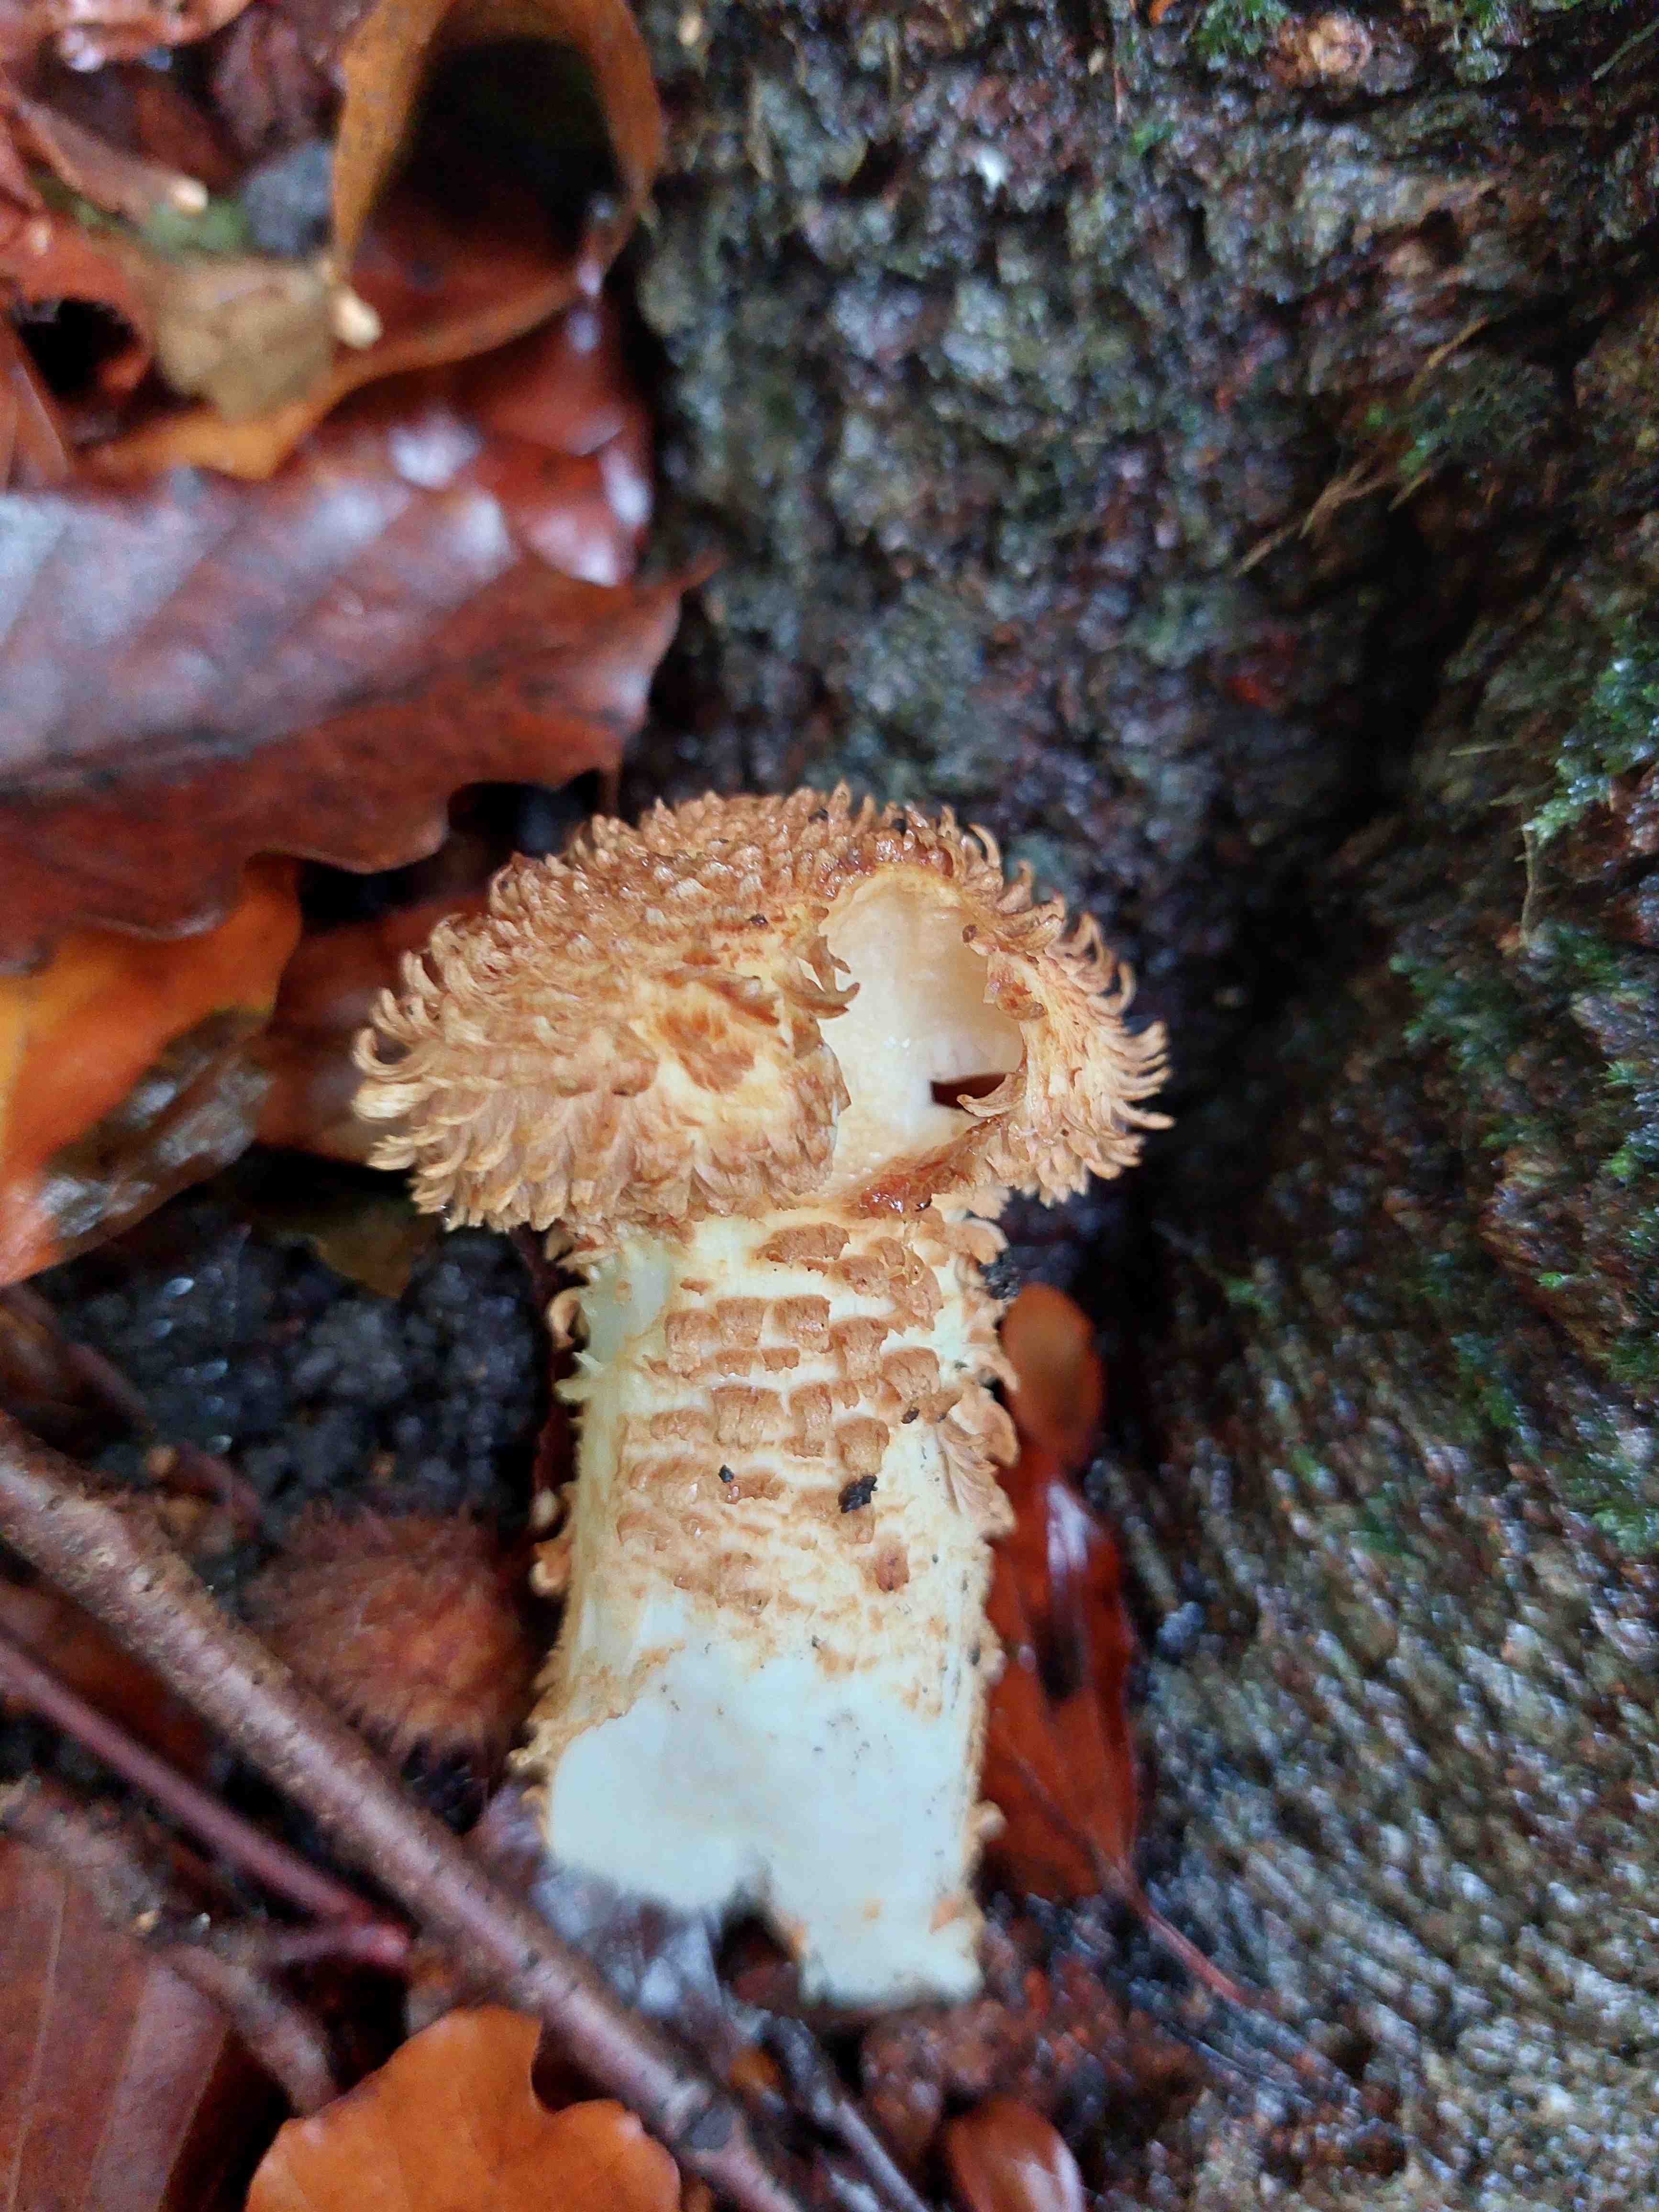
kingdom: Fungi
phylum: Basidiomycota
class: Agaricomycetes
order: Agaricales
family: Strophariaceae
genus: Pholiota
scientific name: Pholiota squarrosa
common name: krumskællet skælhat
